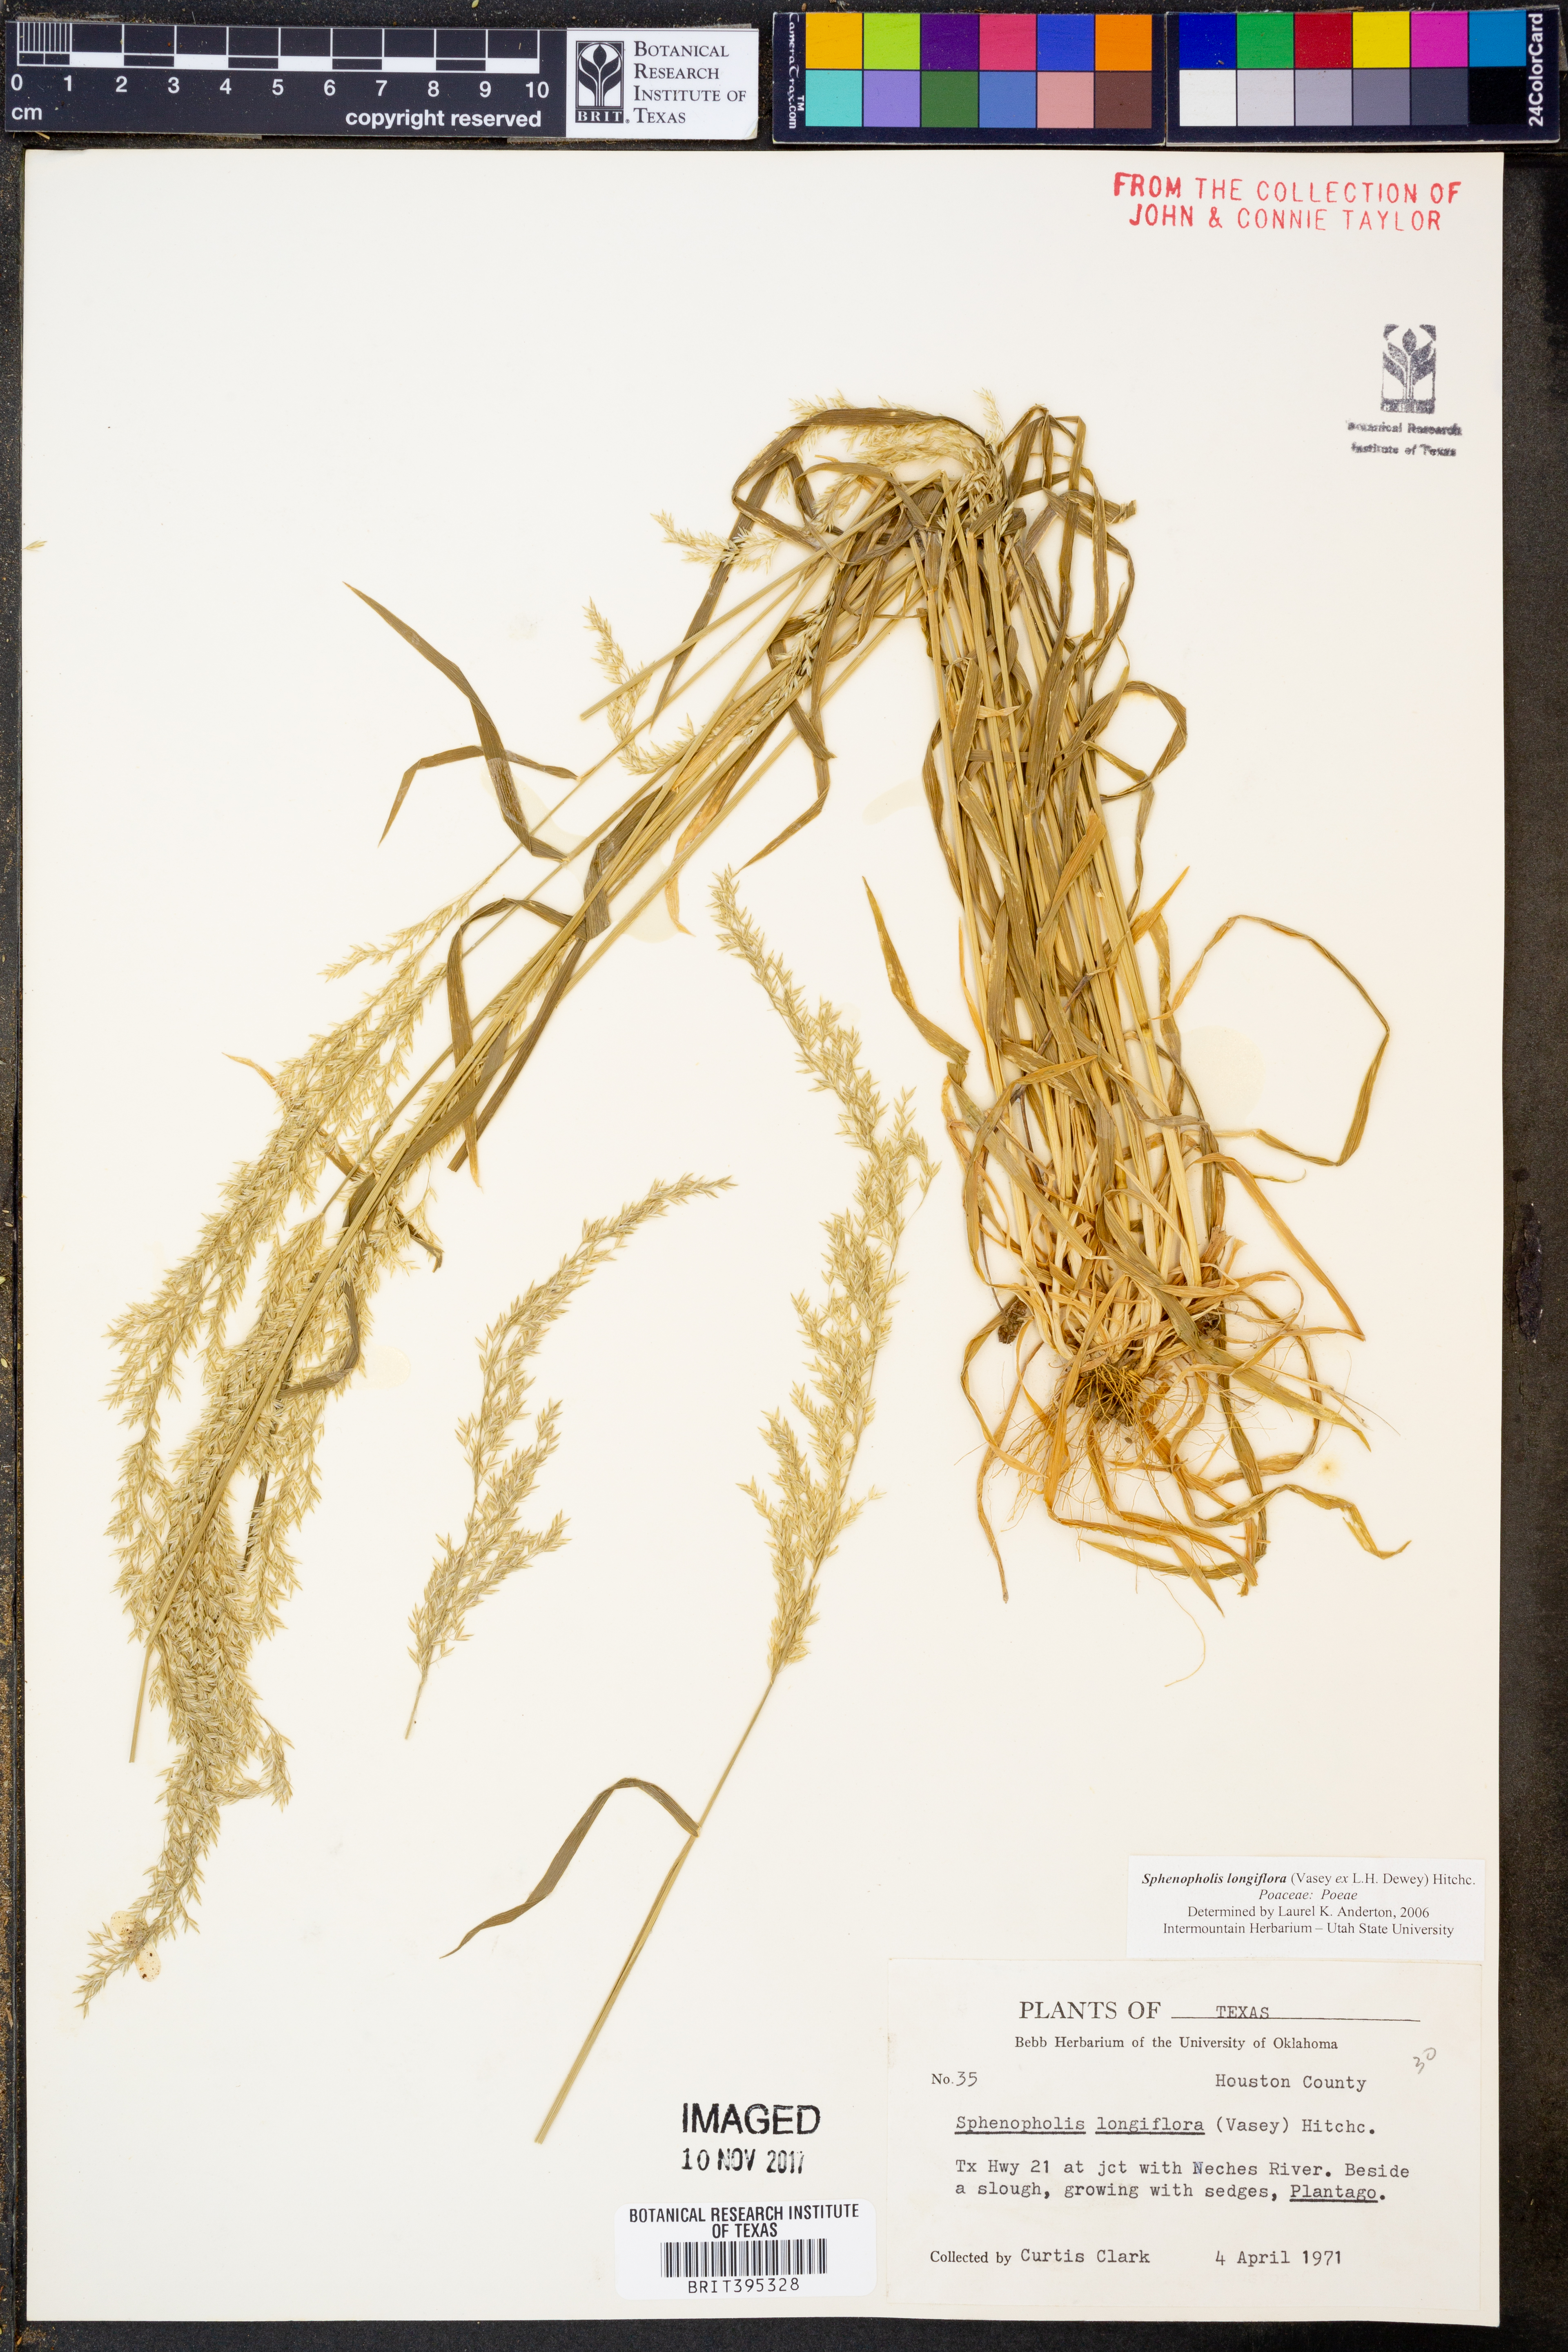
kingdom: Plantae
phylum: Tracheophyta
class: Liliopsida
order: Poales
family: Poaceae
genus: Sphenopholis
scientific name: Sphenopholis intermedia
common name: Intermediate eaton's grass
